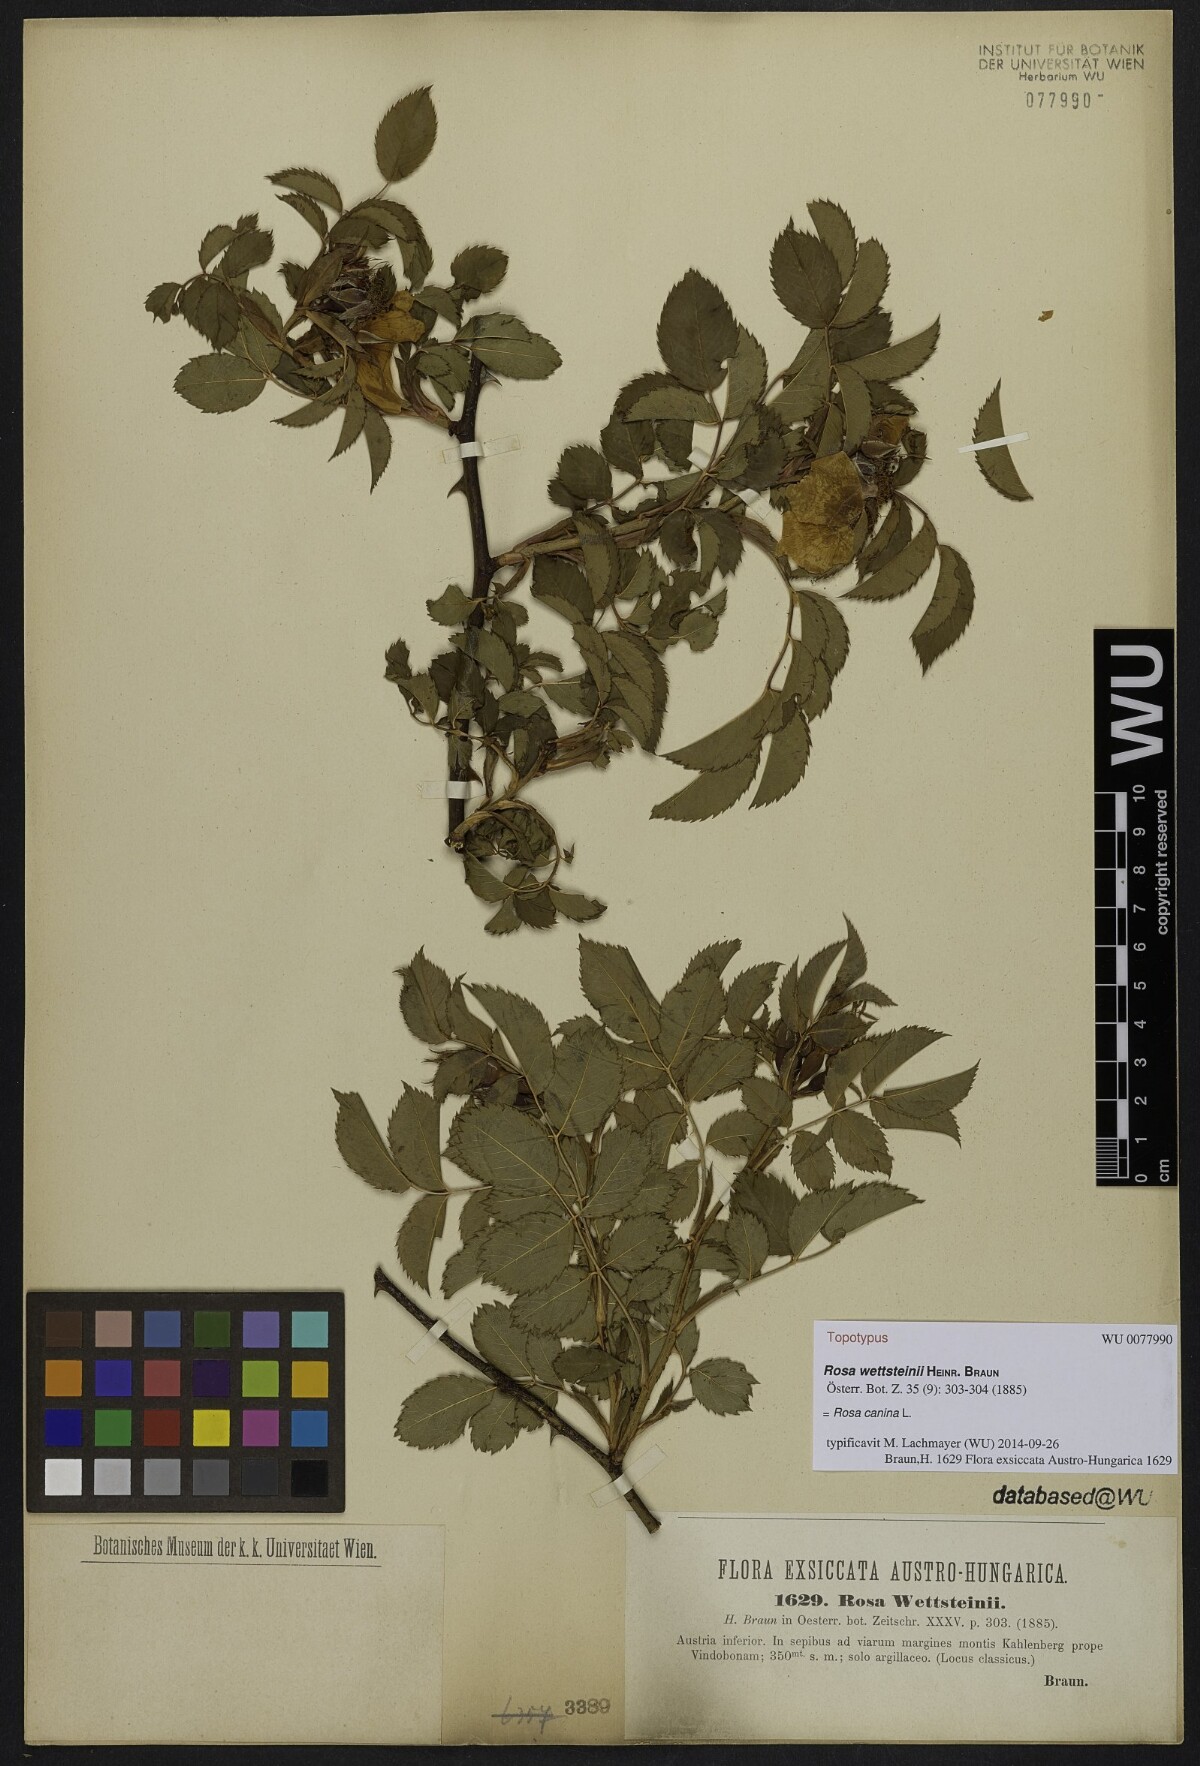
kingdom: Plantae
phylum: Tracheophyta
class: Magnoliopsida
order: Rosales
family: Rosaceae
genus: Rosa
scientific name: Rosa canina
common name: Dog rose
